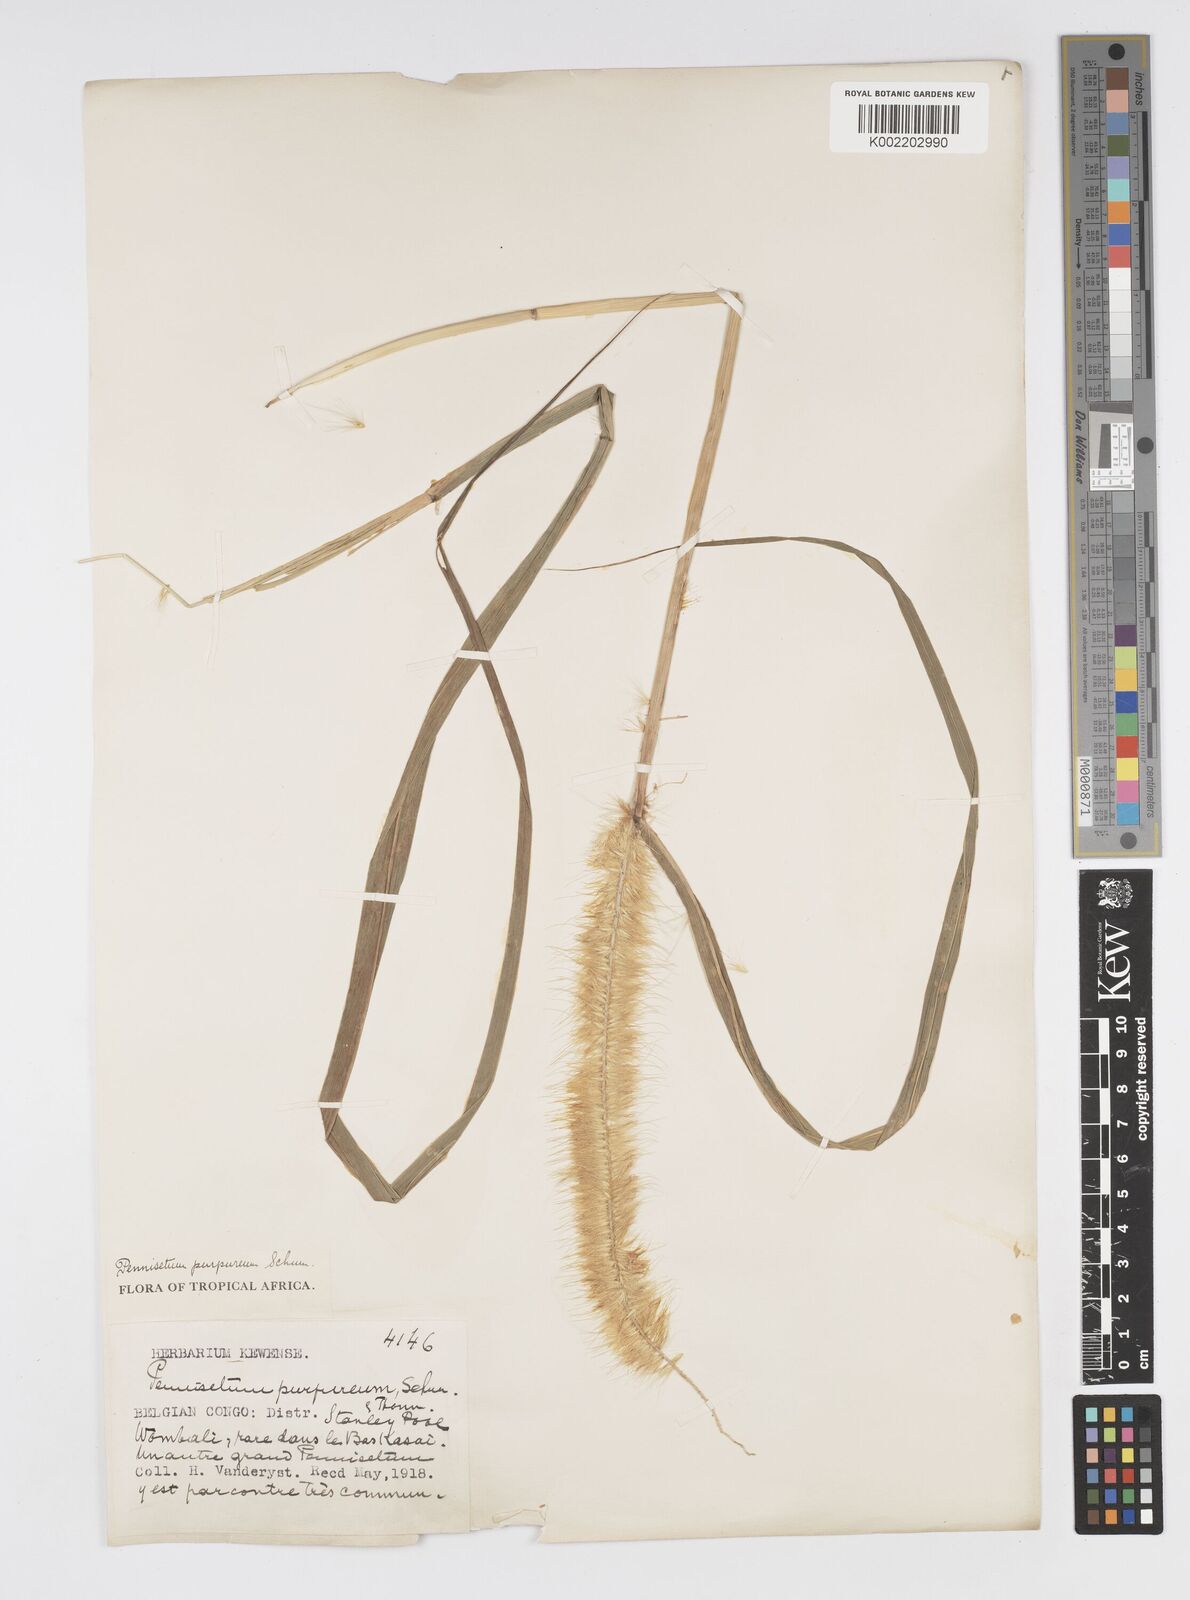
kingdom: Plantae
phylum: Tracheophyta
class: Liliopsida
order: Poales
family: Poaceae
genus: Cenchrus
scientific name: Cenchrus purpureus
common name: Elephant grass
